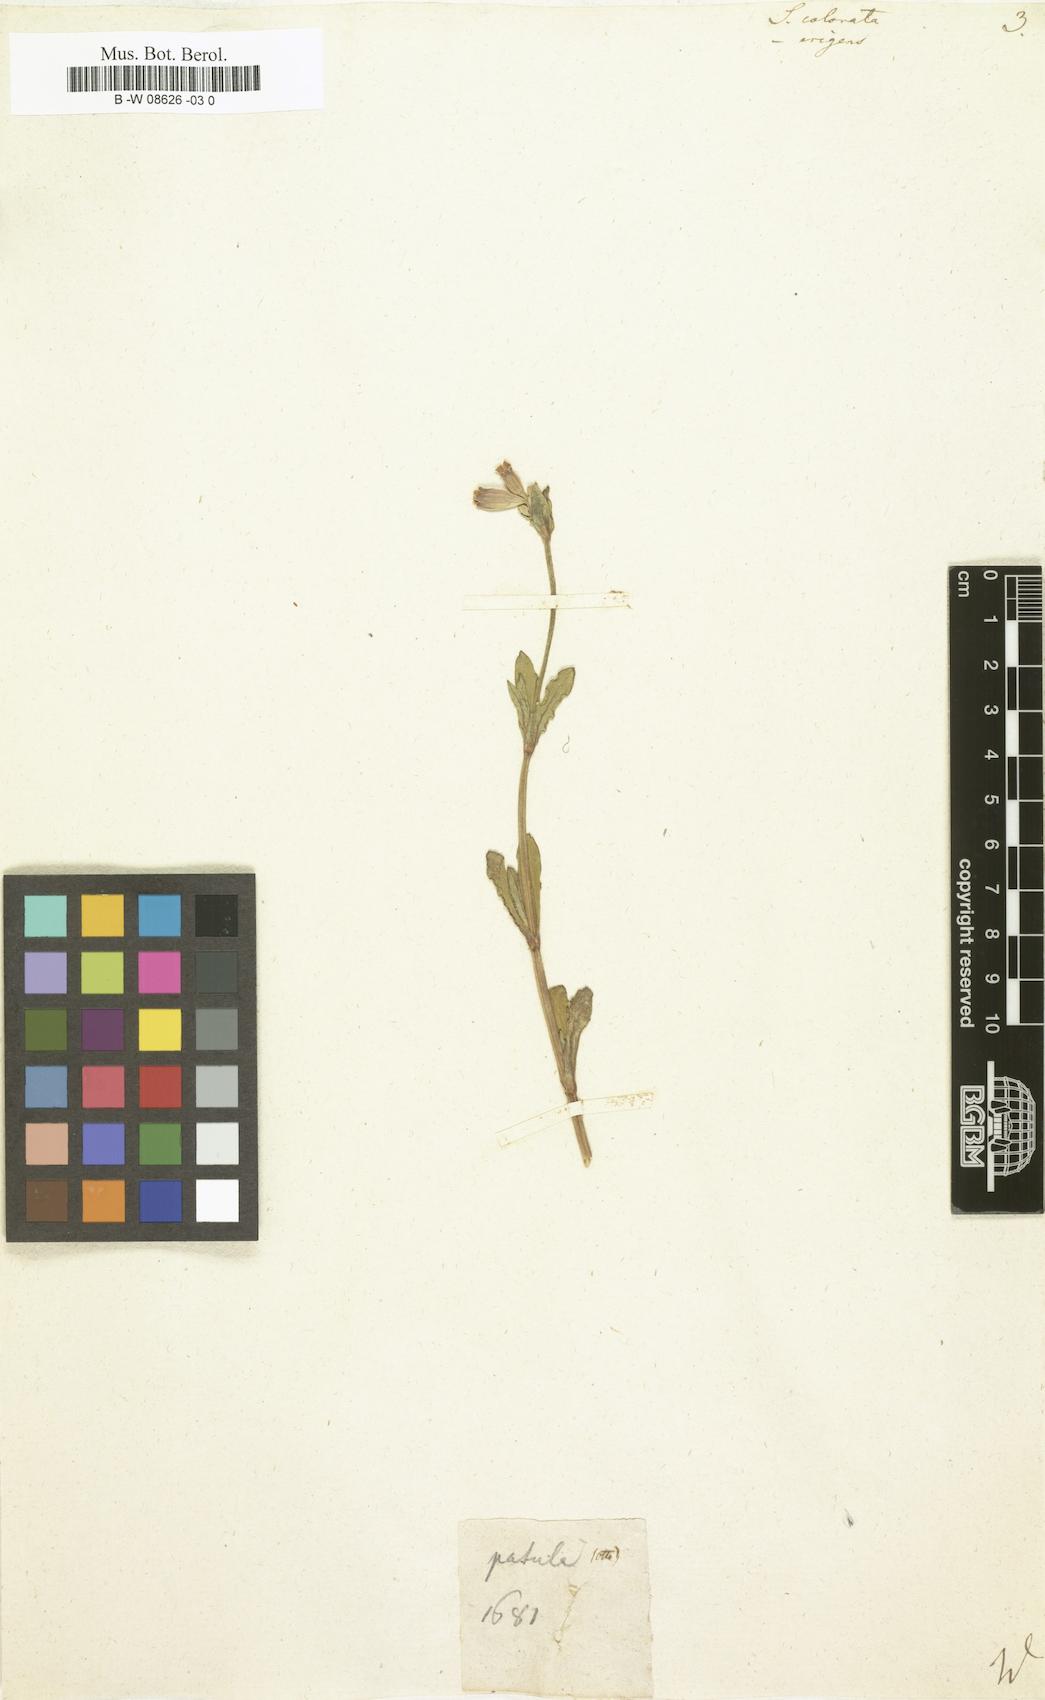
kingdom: Plantae
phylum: Tracheophyta
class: Magnoliopsida
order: Caryophyllales
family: Caryophyllaceae
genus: Silene
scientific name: Silene colorata
